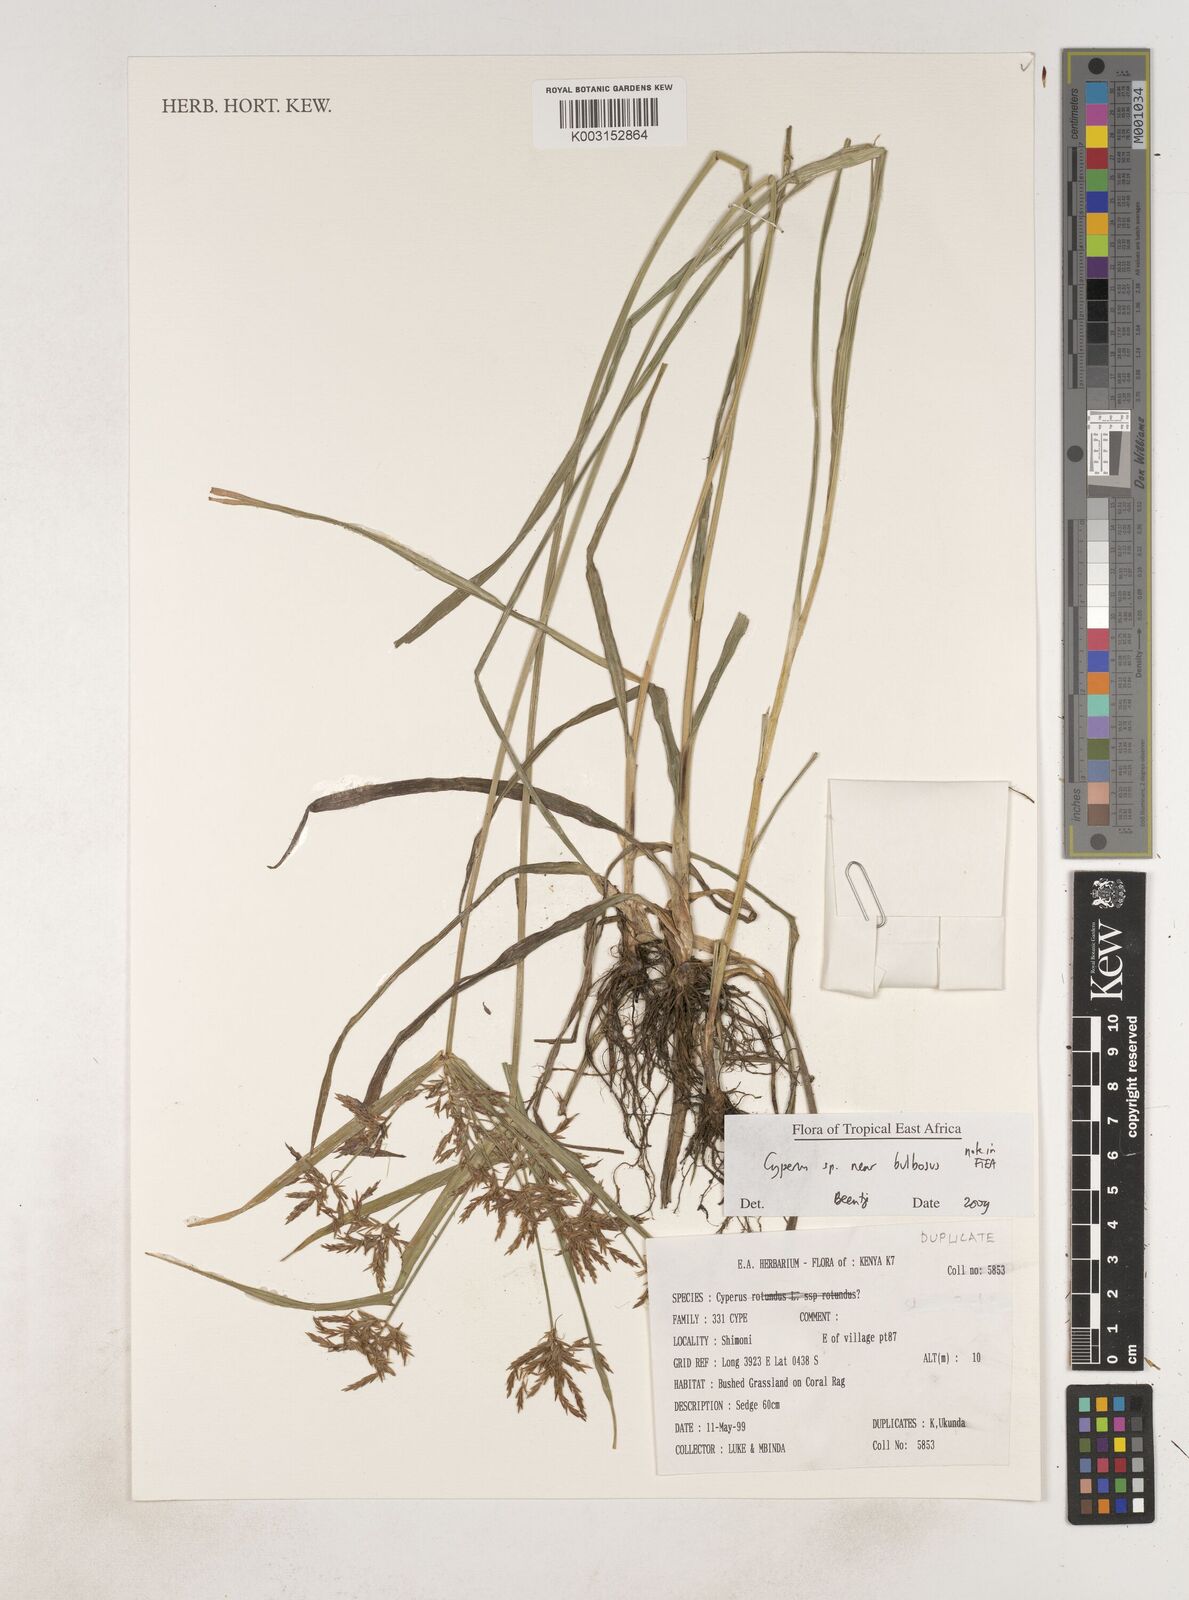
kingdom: Plantae
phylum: Tracheophyta
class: Liliopsida
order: Poales
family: Cyperaceae
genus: Cyperus
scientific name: Cyperus bulbosus
